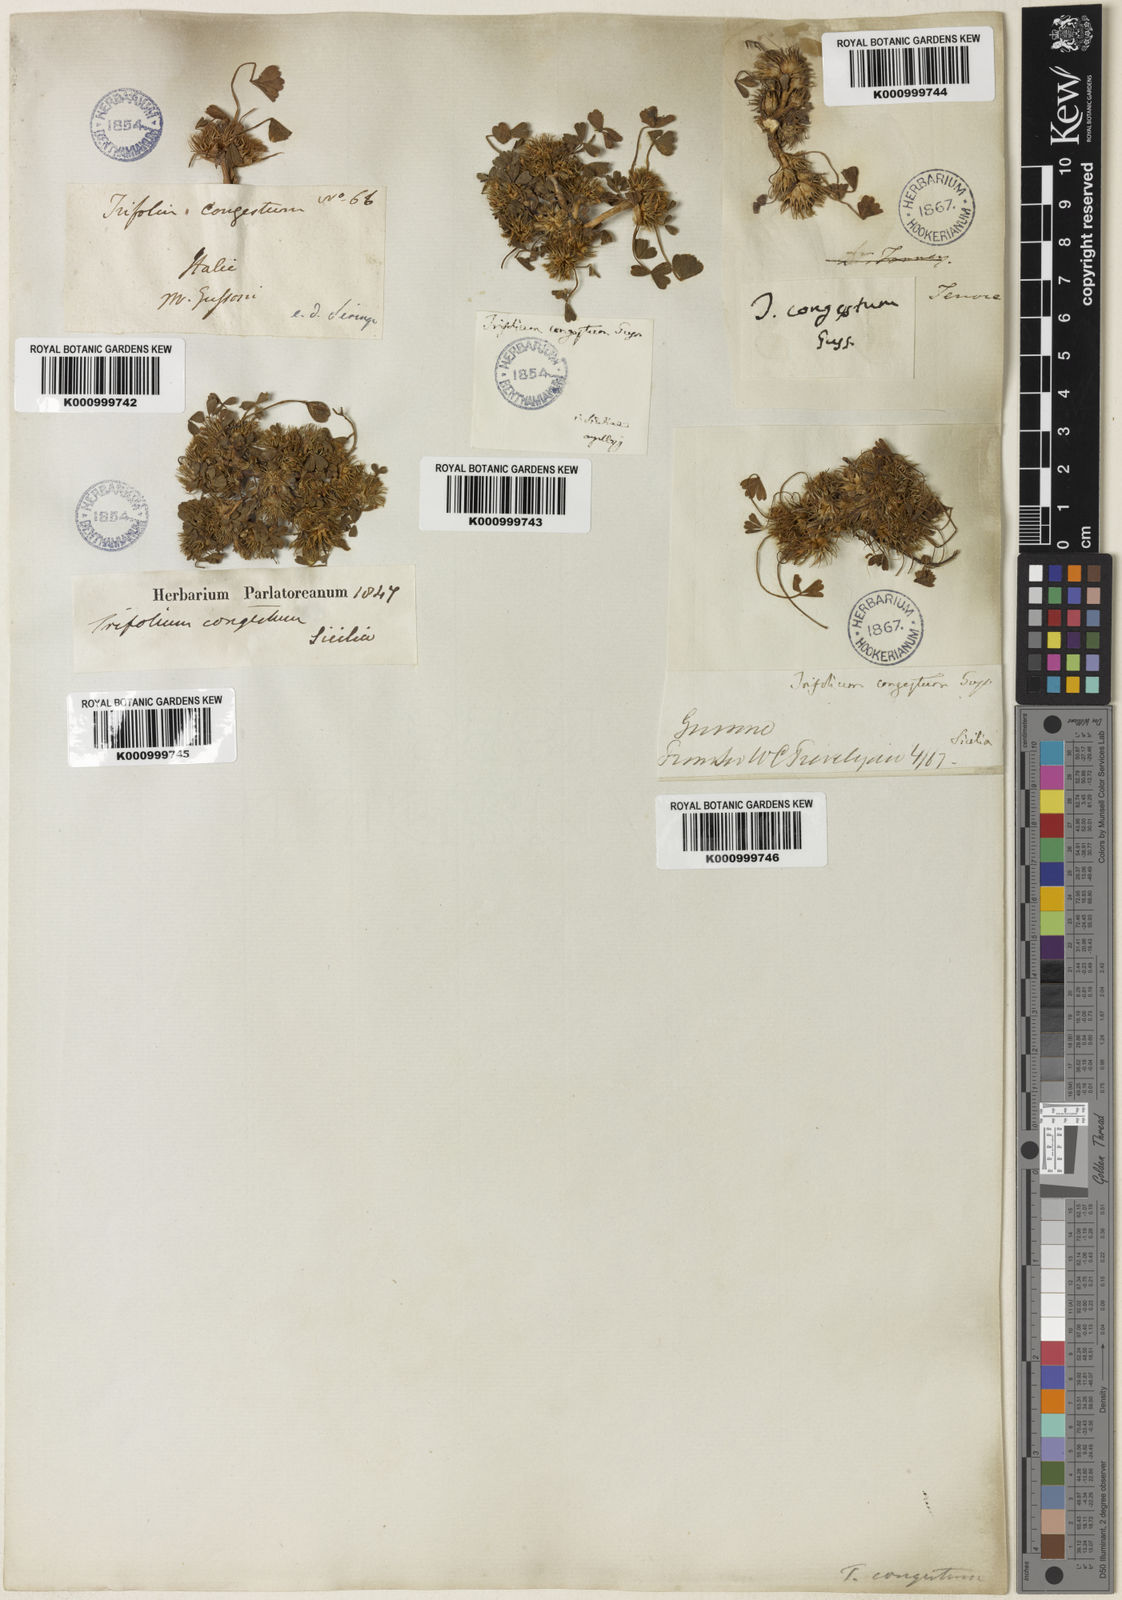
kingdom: Plantae
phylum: Tracheophyta
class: Magnoliopsida
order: Fabales
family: Fabaceae
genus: Trifolium
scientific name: Trifolium congestum
